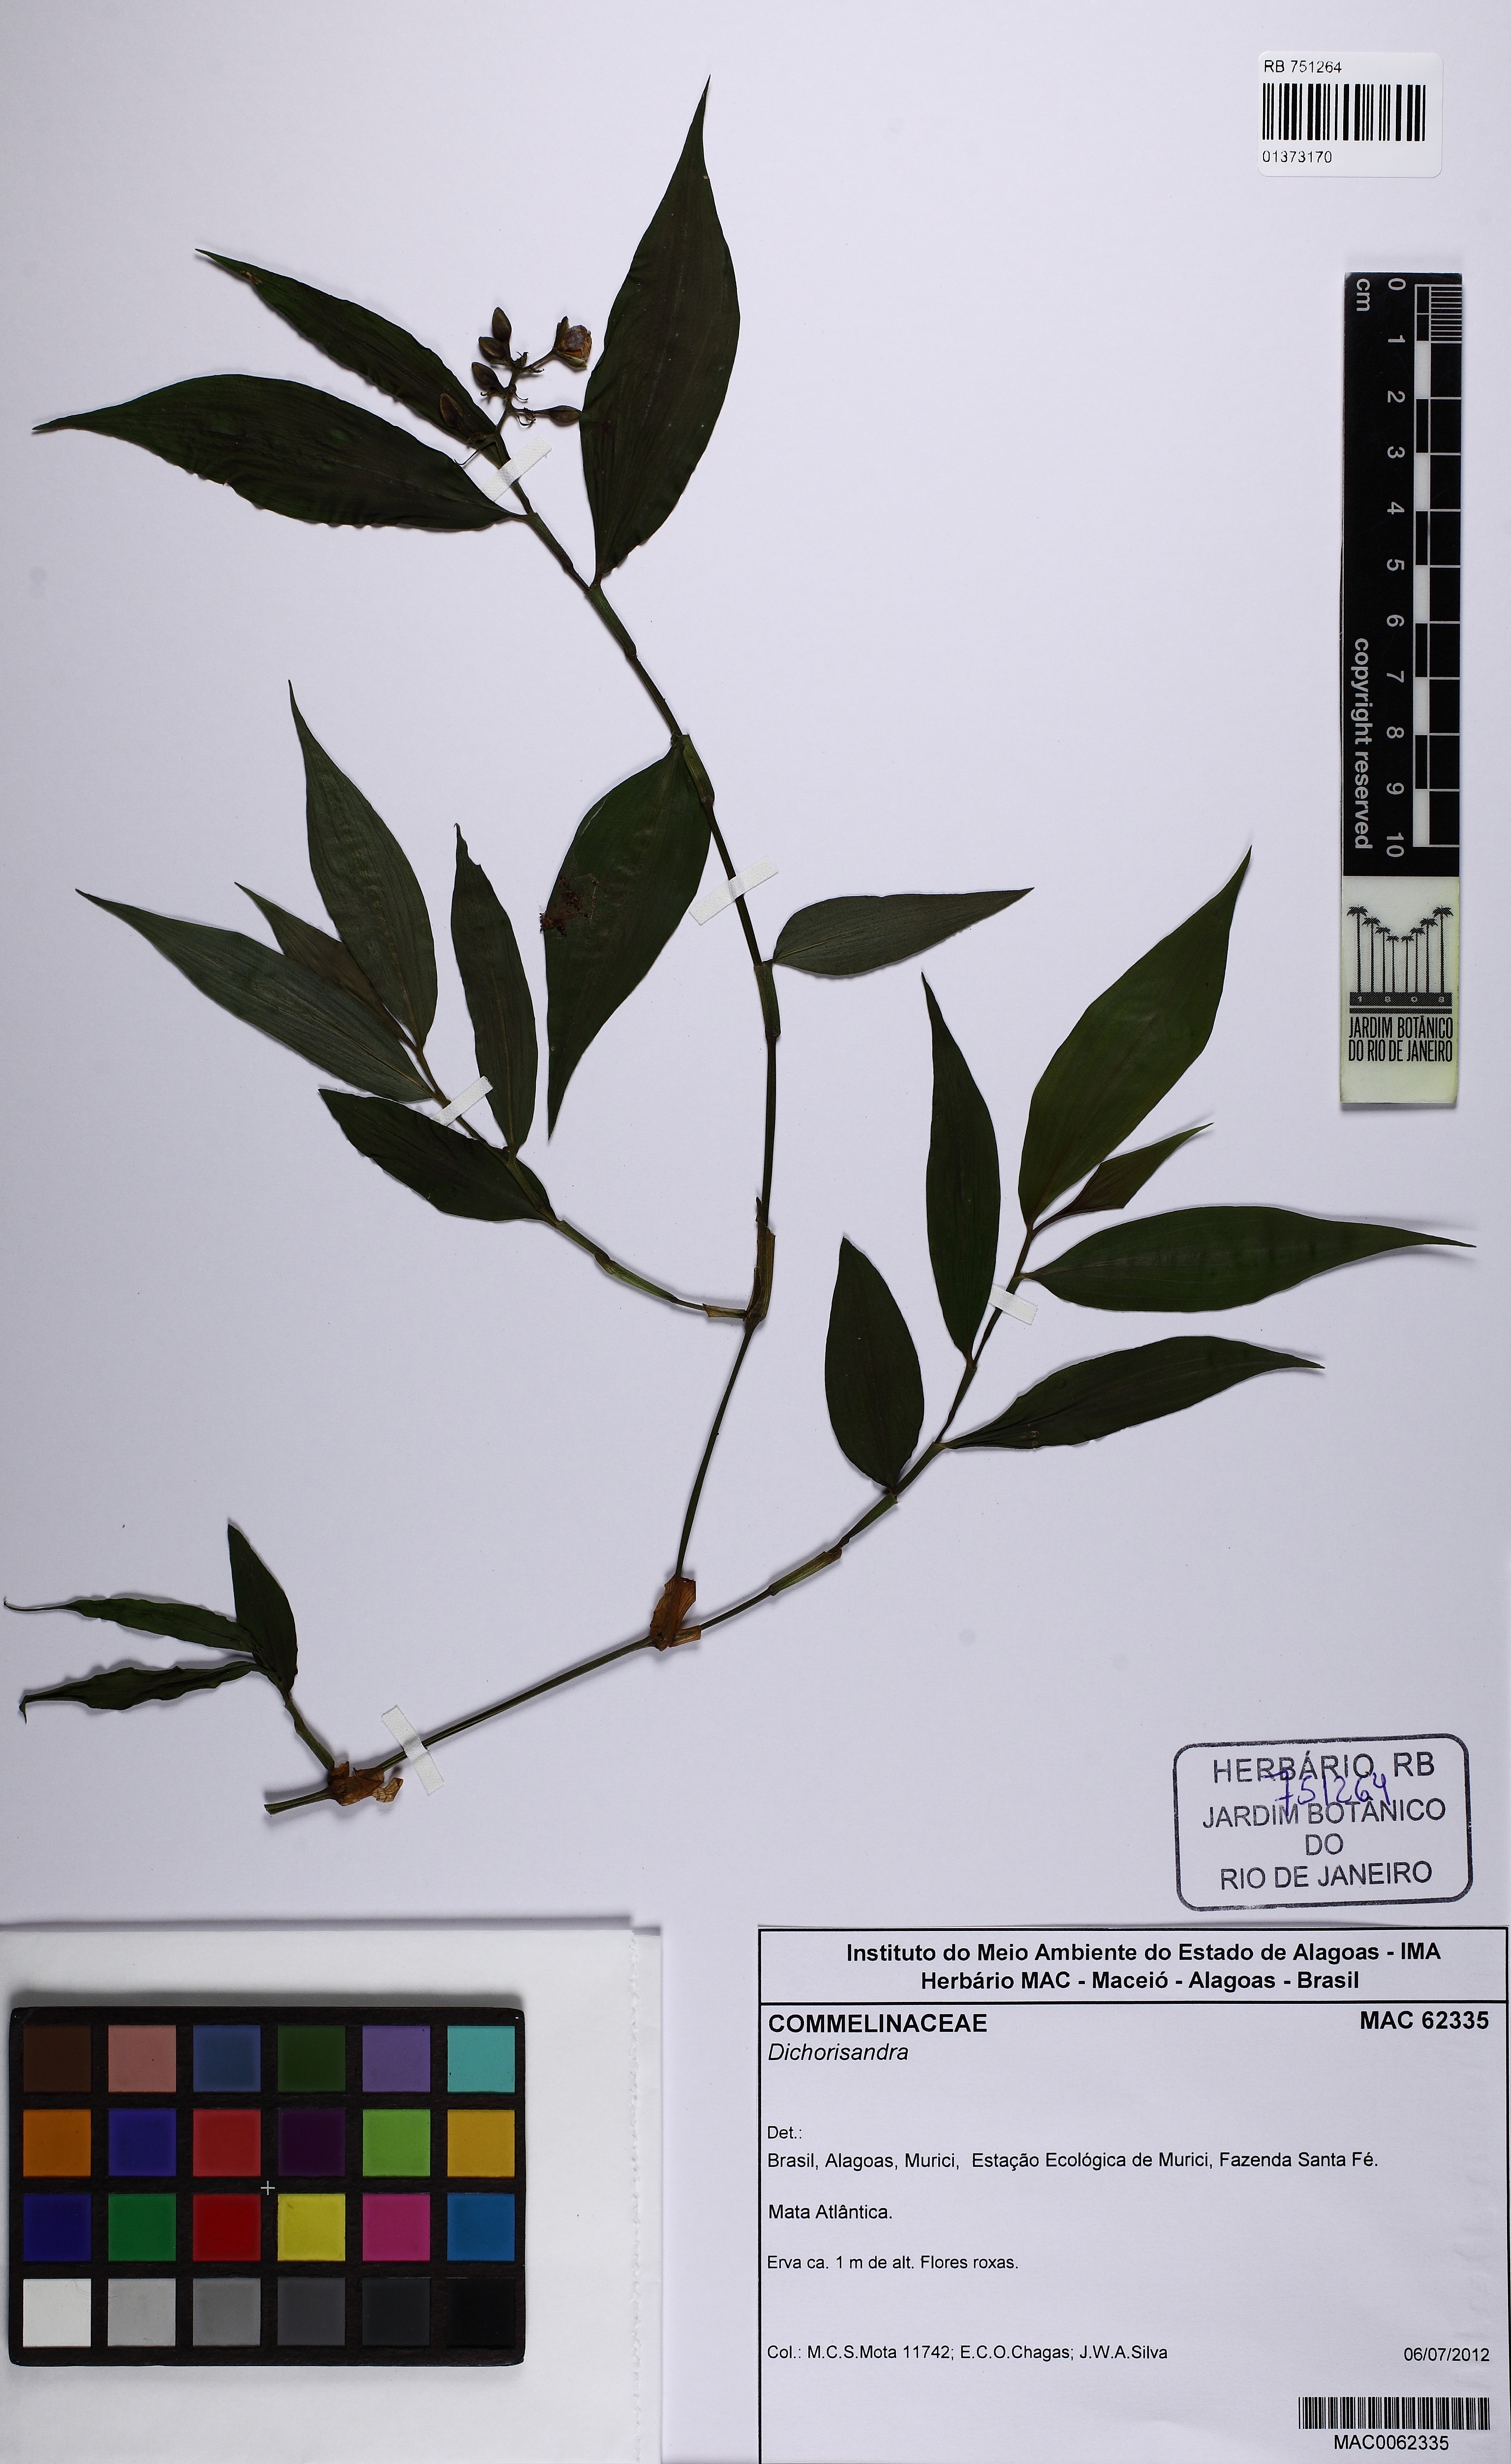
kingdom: Plantae
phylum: Tracheophyta
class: Liliopsida
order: Commelinales
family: Commelinaceae
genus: Dichorisandra
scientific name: Dichorisandra hexandra
